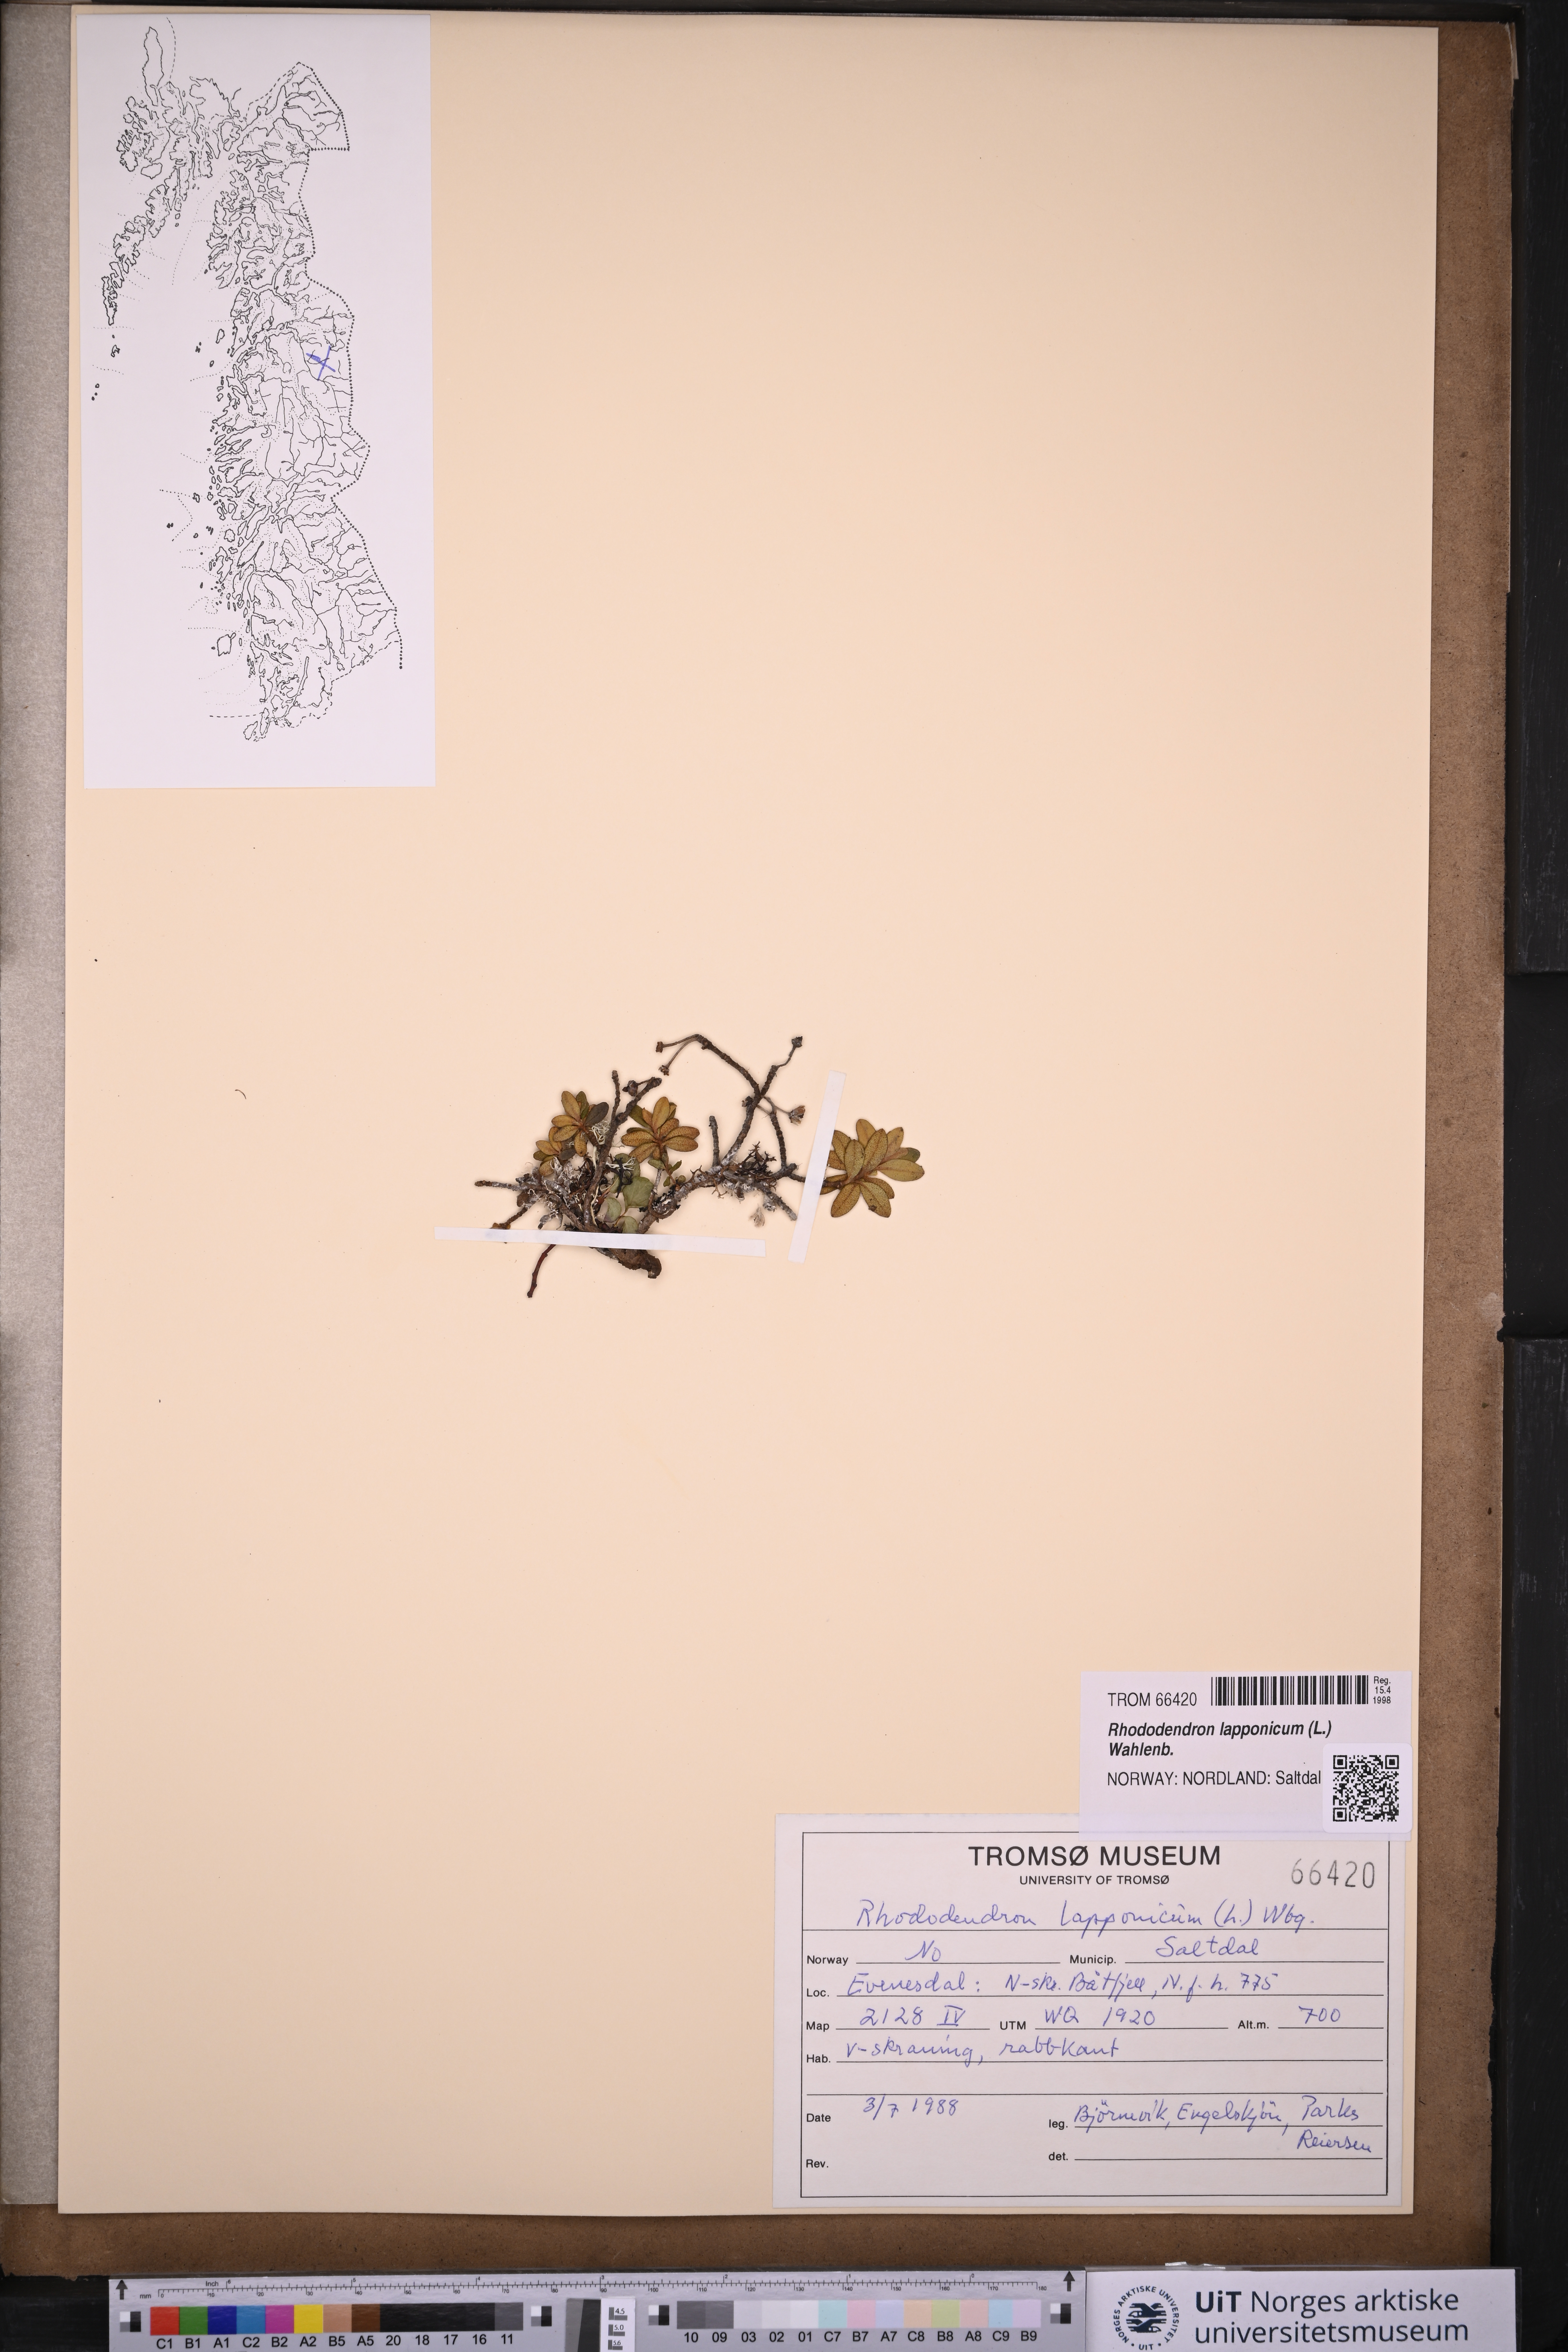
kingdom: Plantae
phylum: Tracheophyta
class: Magnoliopsida
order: Ericales
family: Ericaceae
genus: Rhododendron
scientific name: Rhododendron lapponicum
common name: Lapland rhododendron
